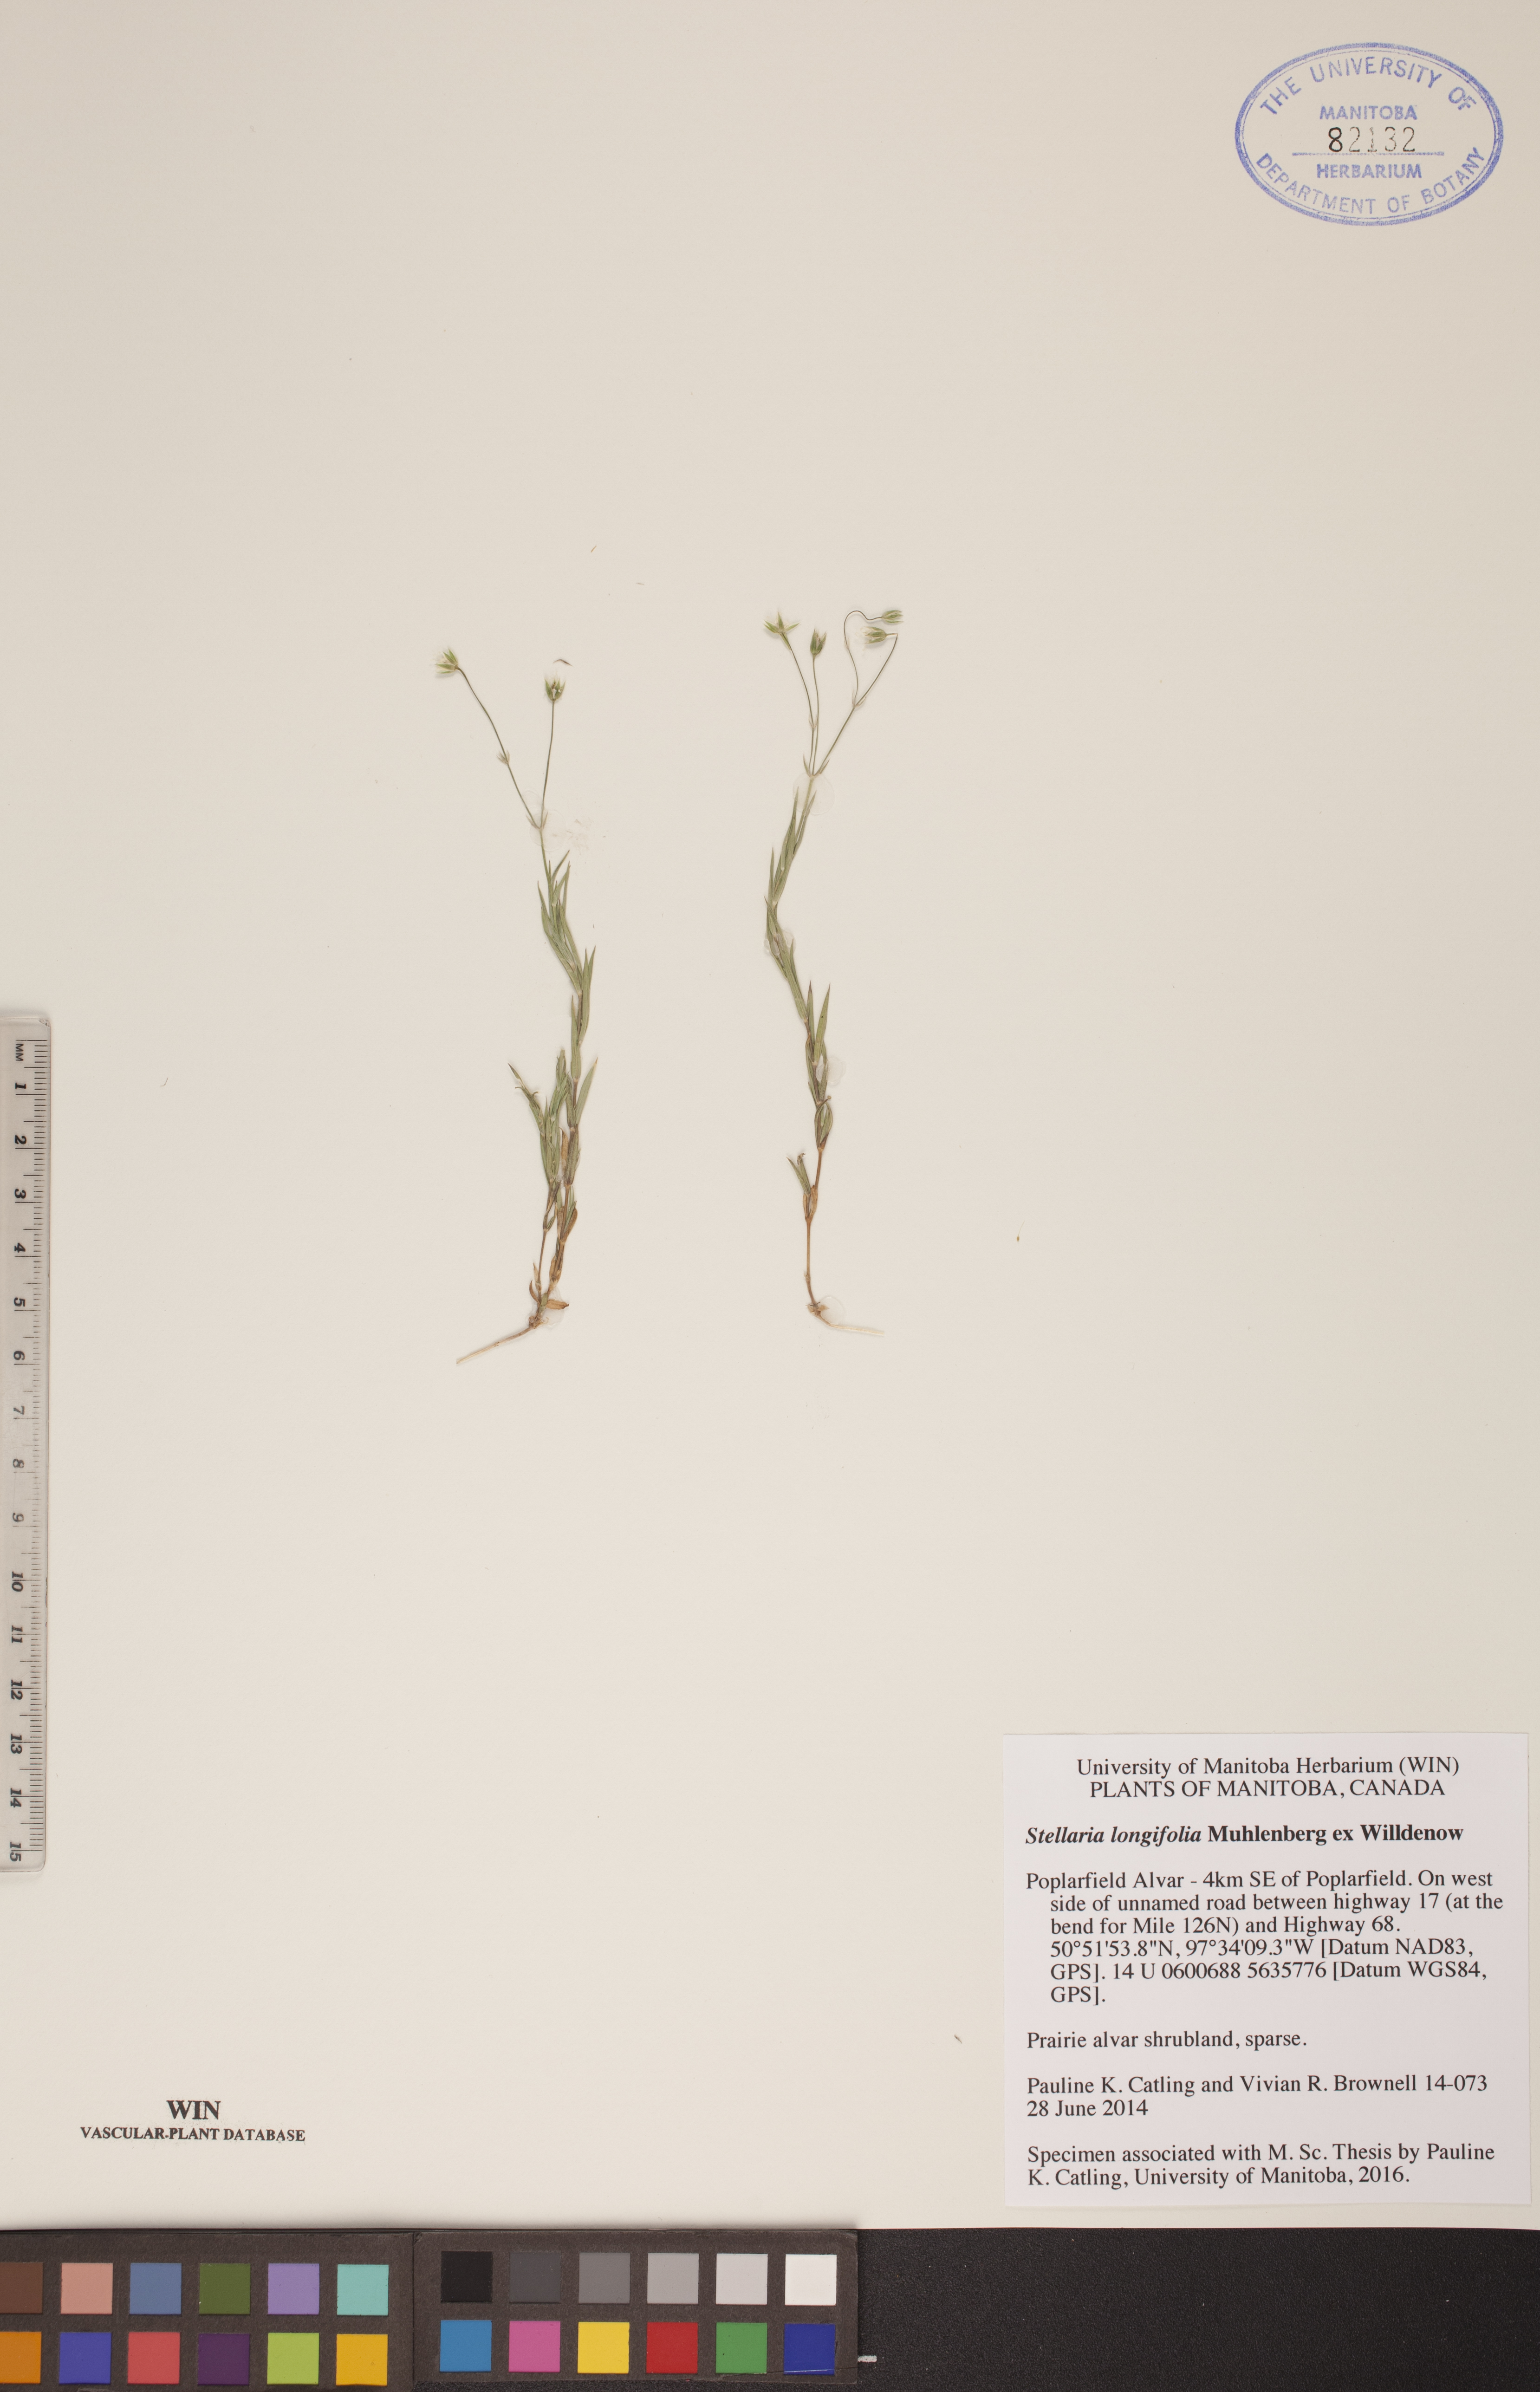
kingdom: Plantae
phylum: Tracheophyta
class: Magnoliopsida
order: Caryophyllales
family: Caryophyllaceae
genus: Stellaria
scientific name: Stellaria longifolia
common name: Long-leaved chickweed
